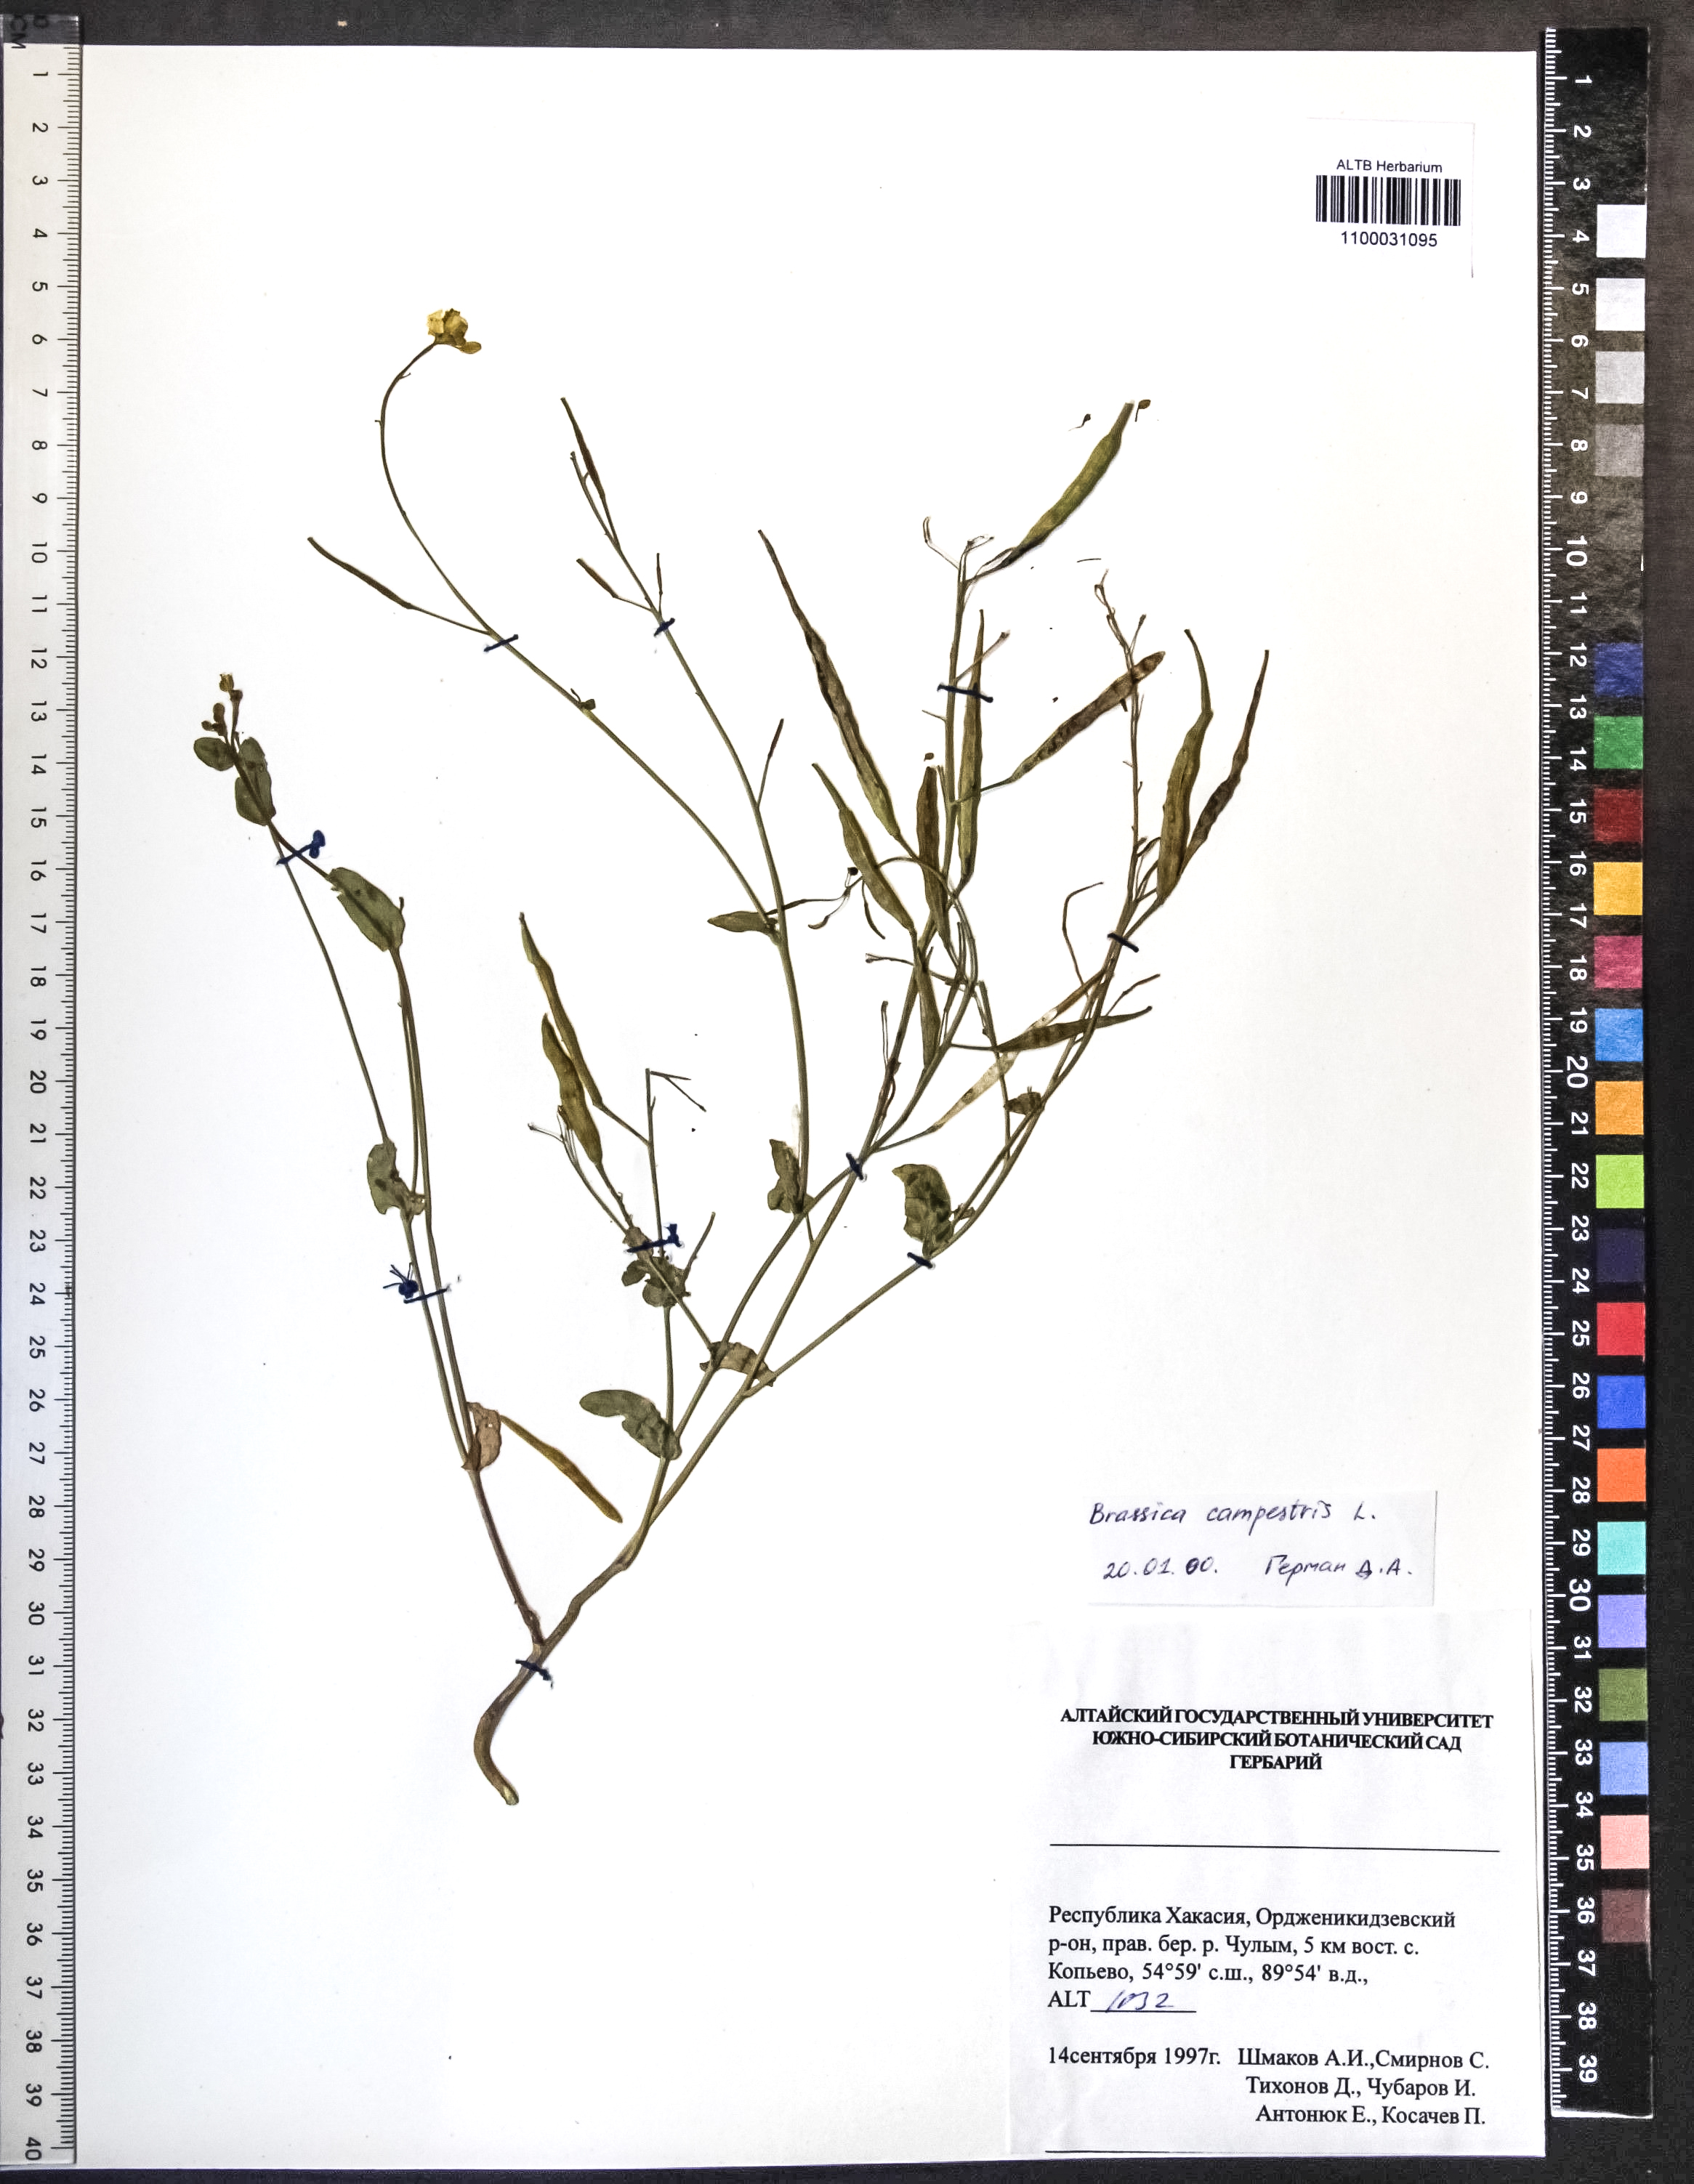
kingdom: Plantae
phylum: Tracheophyta
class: Magnoliopsida
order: Brassicales
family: Brassicaceae
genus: Brassica
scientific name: Brassica rapa
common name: Field mustard
